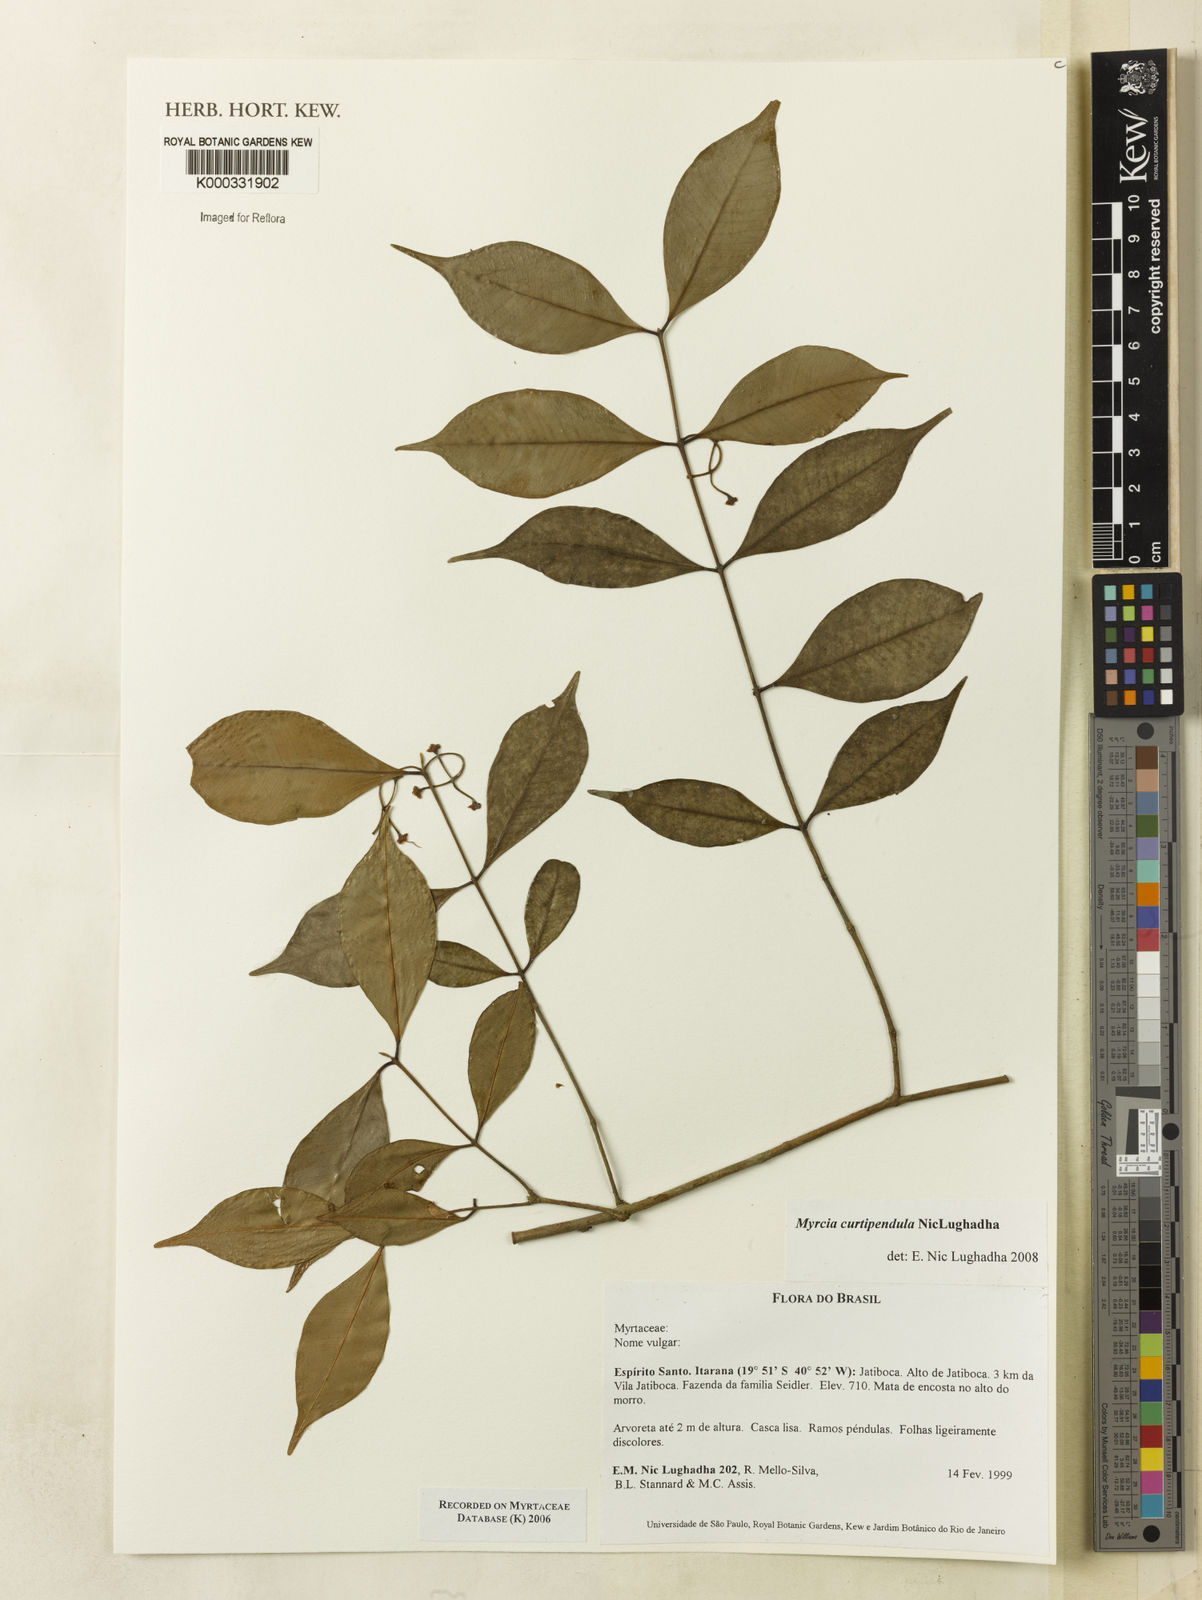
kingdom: Plantae
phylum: Tracheophyta
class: Magnoliopsida
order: Myrtales
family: Myrtaceae
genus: Myrcia
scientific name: Myrcia tijucensis
